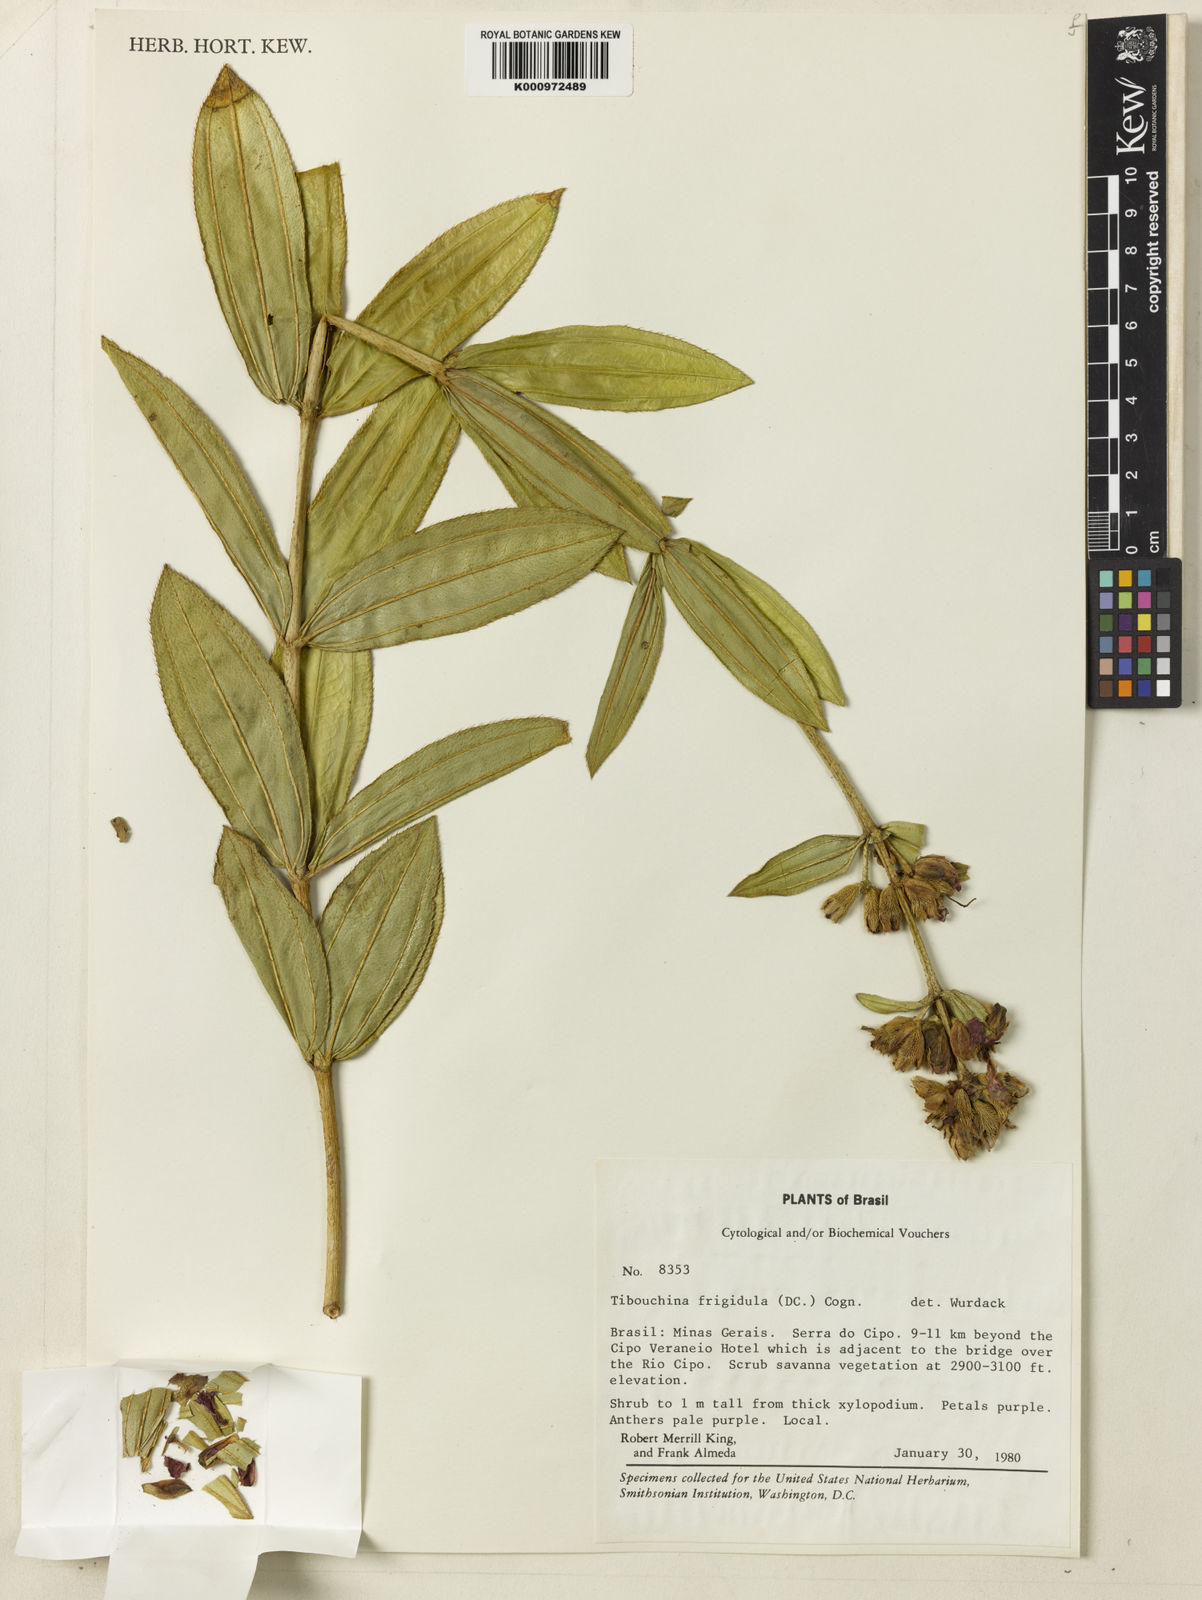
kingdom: Plantae
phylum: Tracheophyta
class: Magnoliopsida
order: Myrtales
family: Melastomataceae
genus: Pleroma
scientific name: Pleroma martiusianum
